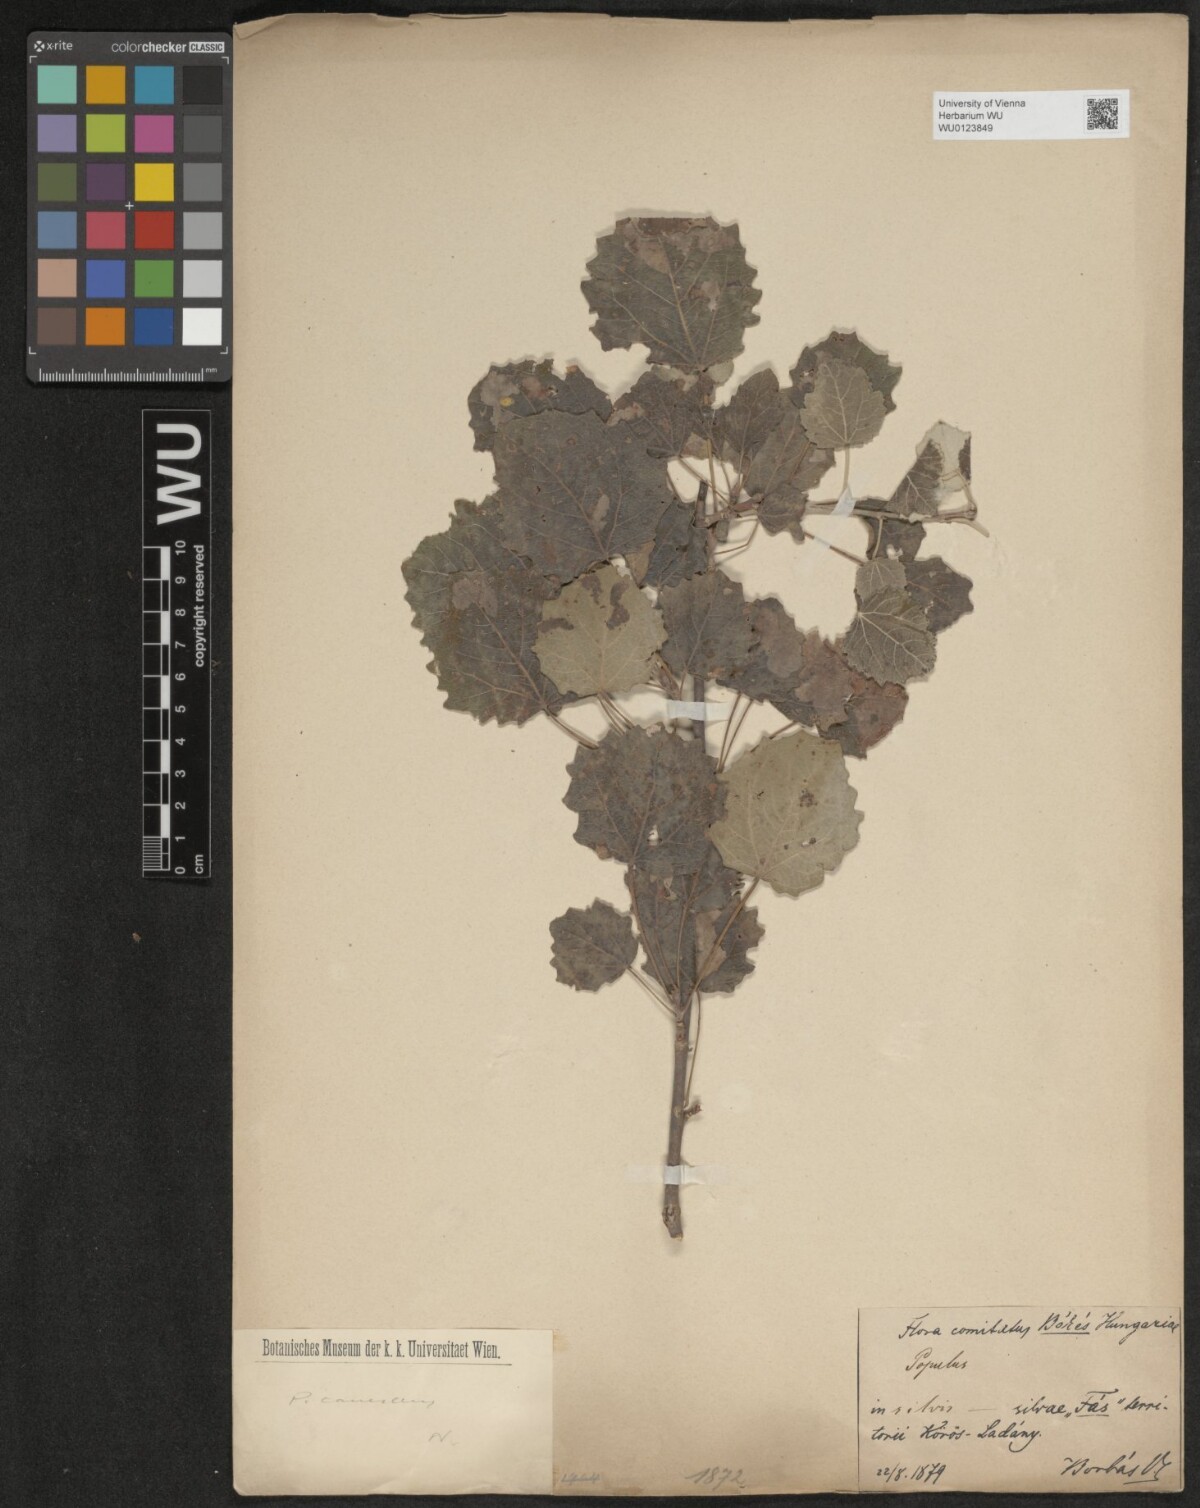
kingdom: Plantae
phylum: Tracheophyta
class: Magnoliopsida
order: Malpighiales
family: Salicaceae
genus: Populus
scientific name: Populus canescens
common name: Gray poplar
